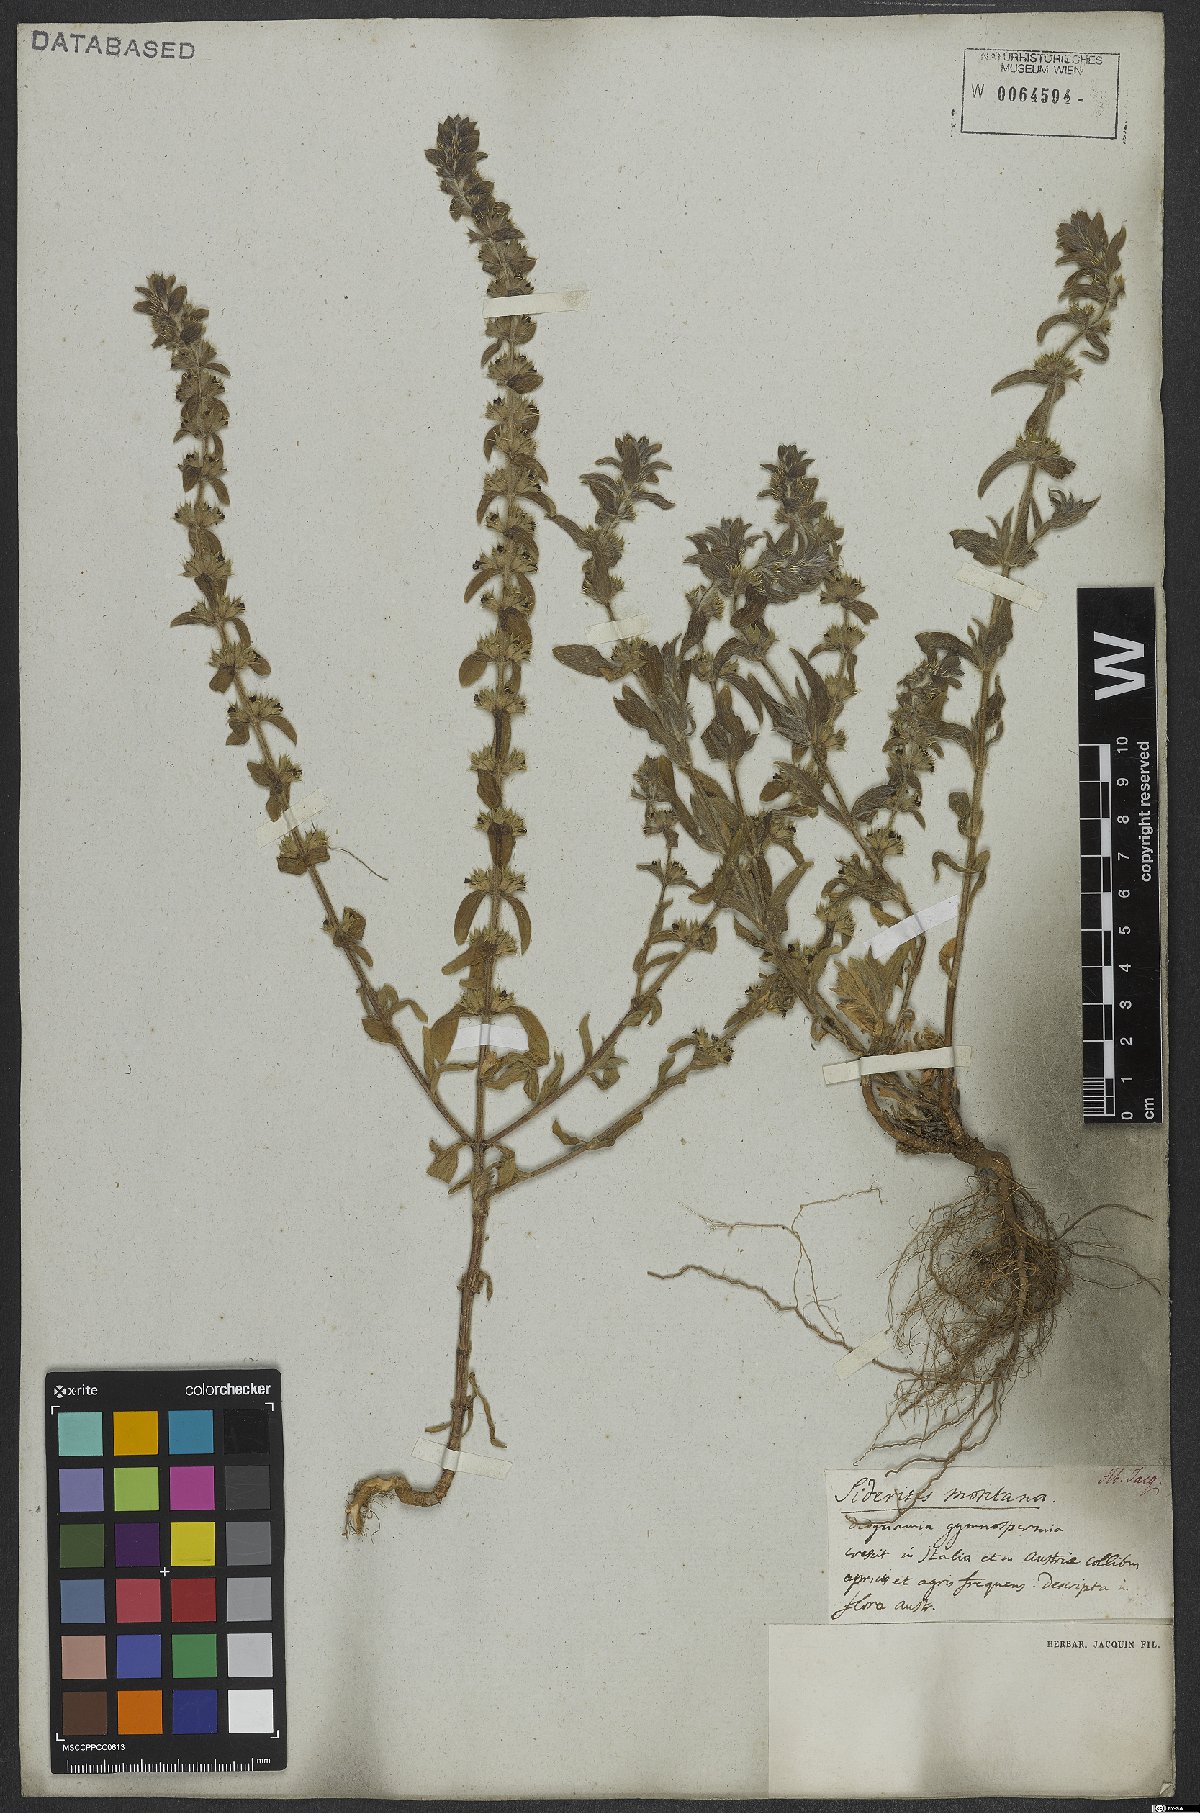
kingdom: Plantae
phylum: Tracheophyta
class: Magnoliopsida
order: Lamiales
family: Lamiaceae
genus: Sideritis
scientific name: Sideritis montana
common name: Mountain ironwort
